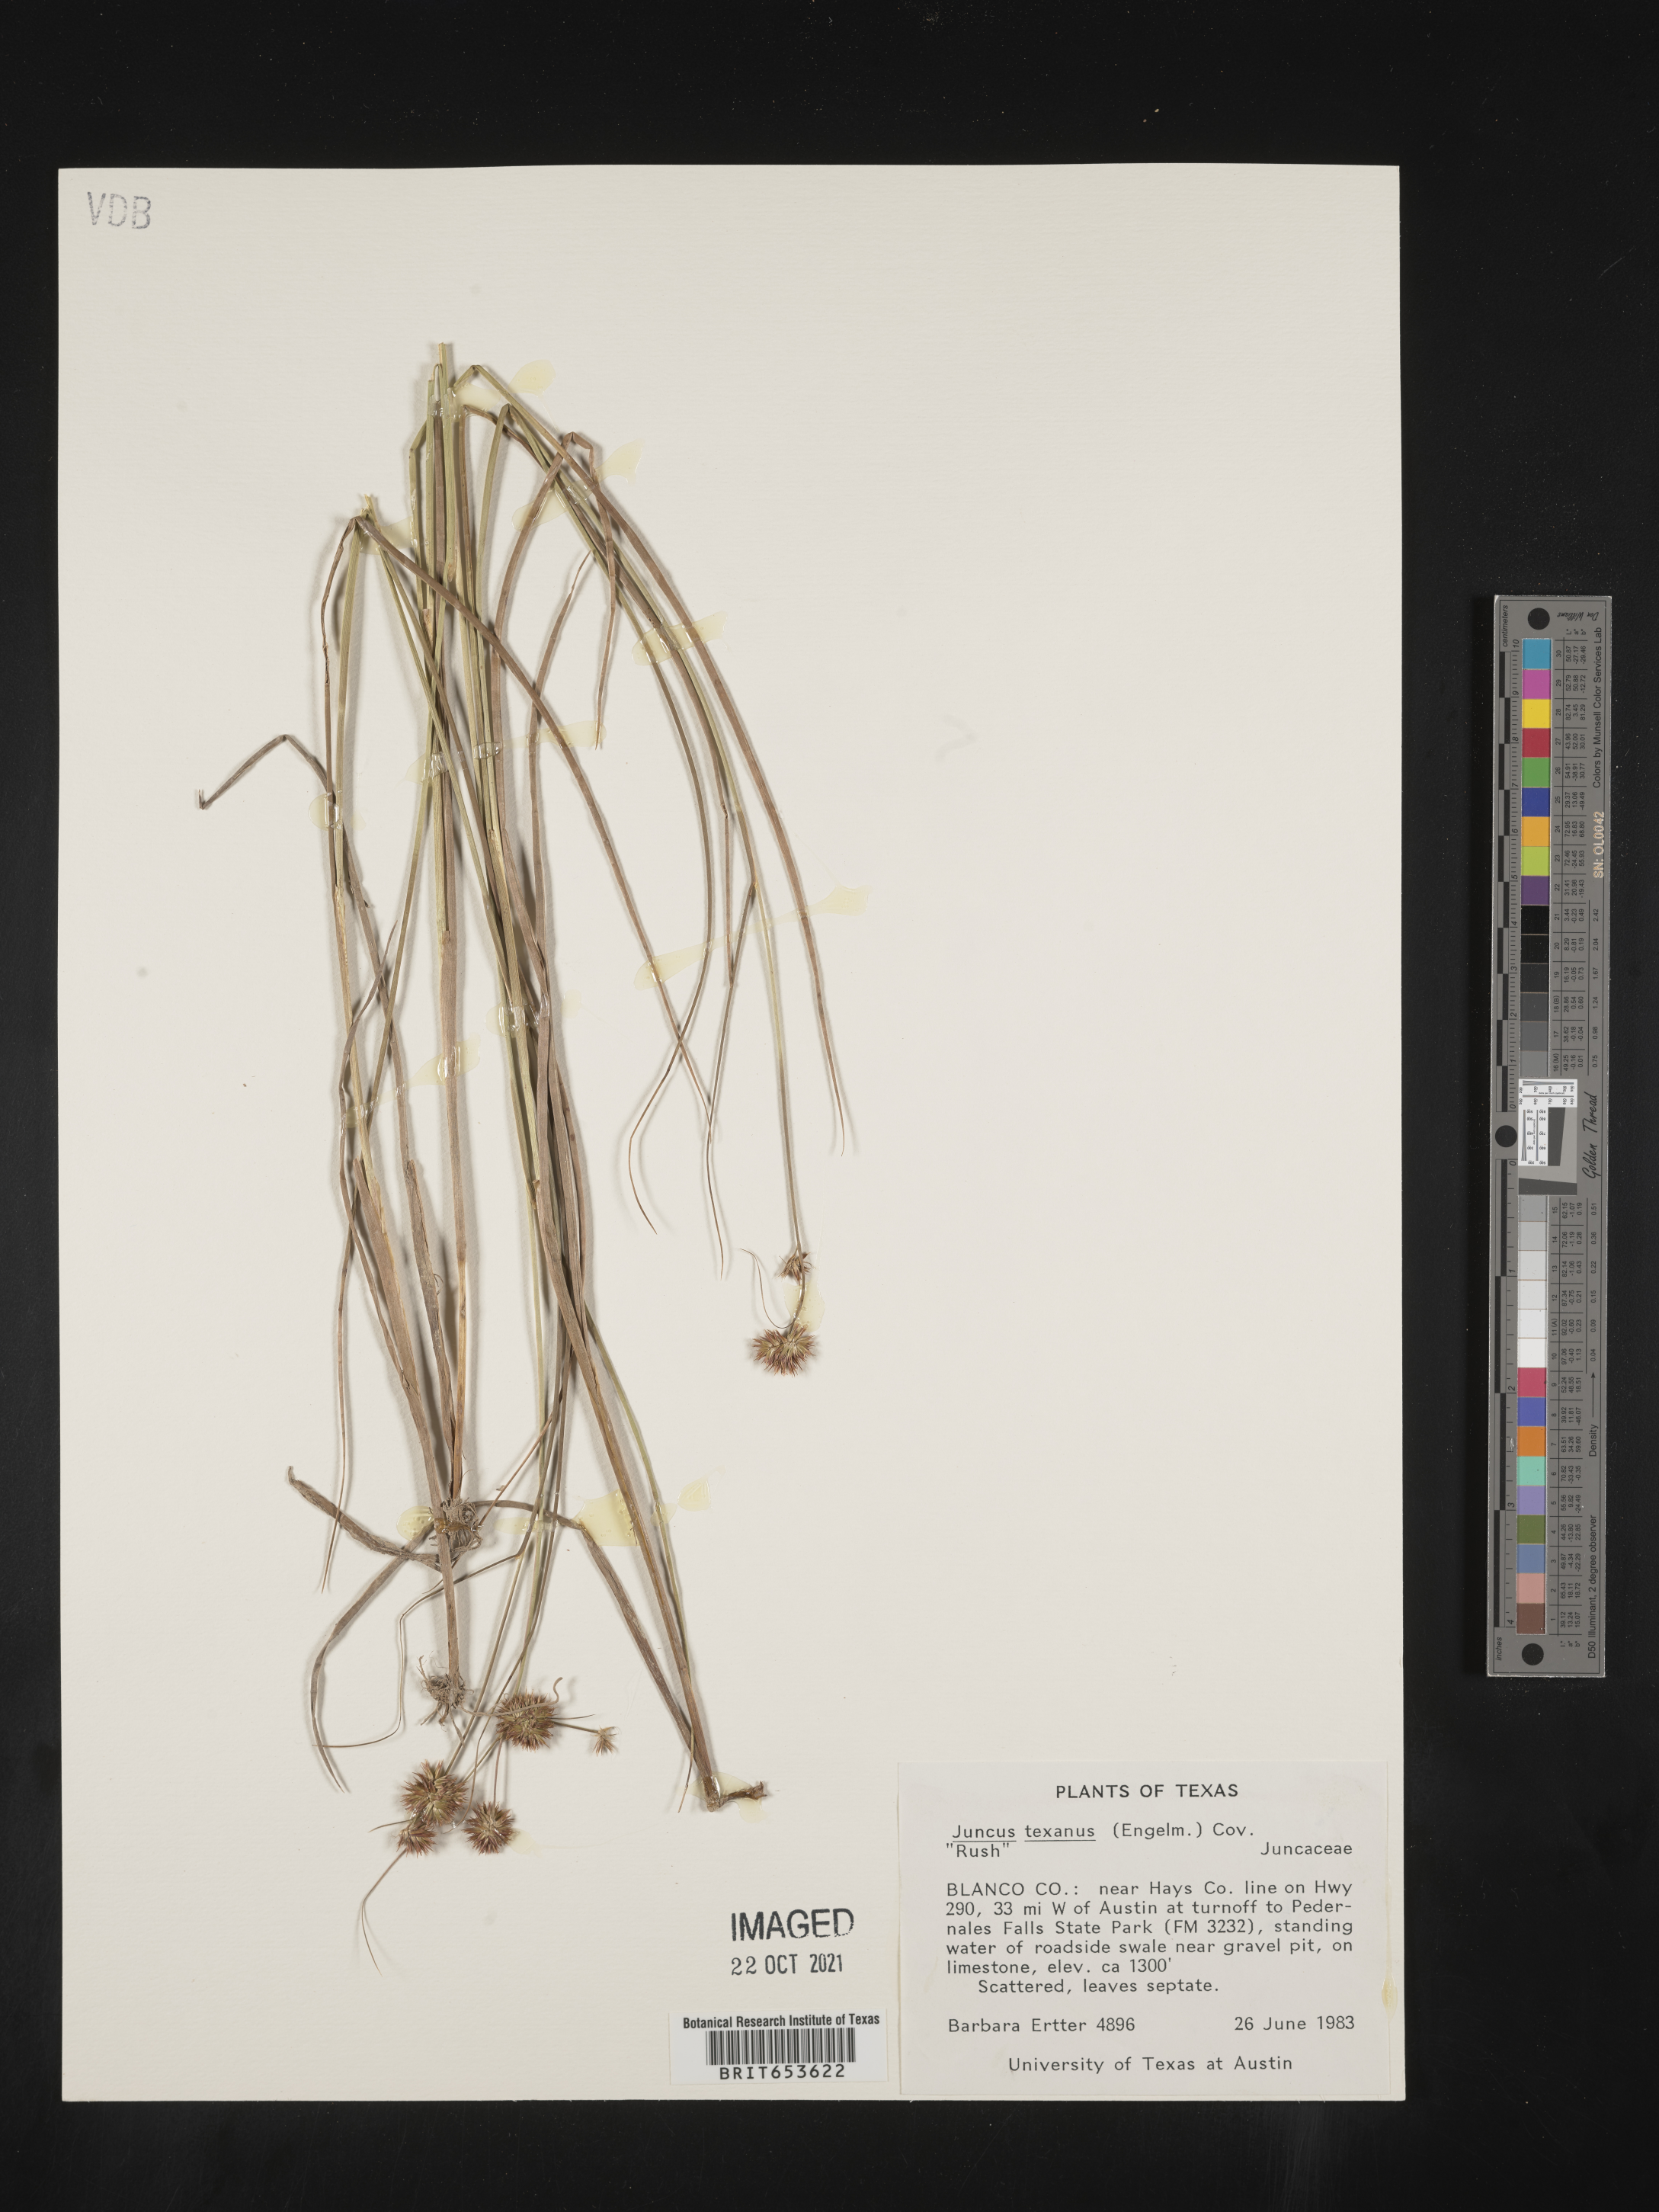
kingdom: Plantae
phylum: Tracheophyta
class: Liliopsida
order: Poales
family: Juncaceae
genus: Juncus
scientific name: Juncus texanus
